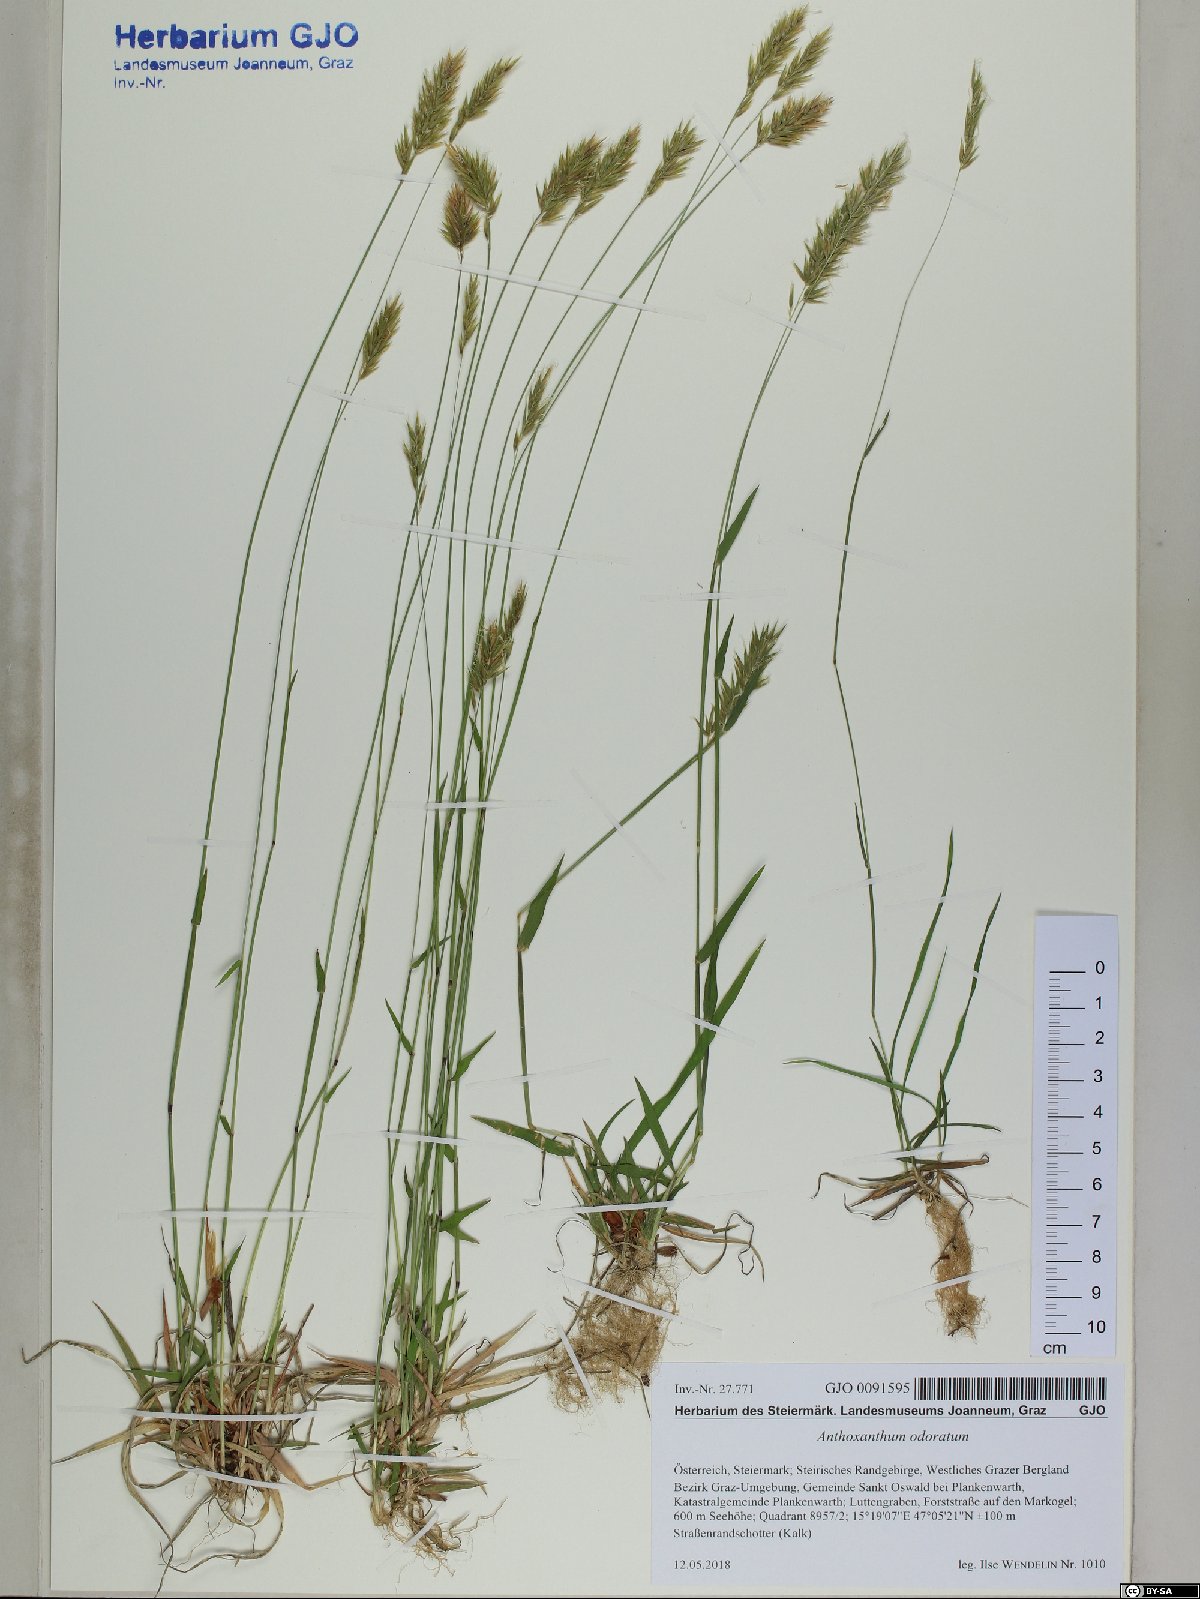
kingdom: Plantae
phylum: Tracheophyta
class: Liliopsida
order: Poales
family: Poaceae
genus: Anthoxanthum
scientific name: Anthoxanthum odoratum
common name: Sweet vernalgrass
